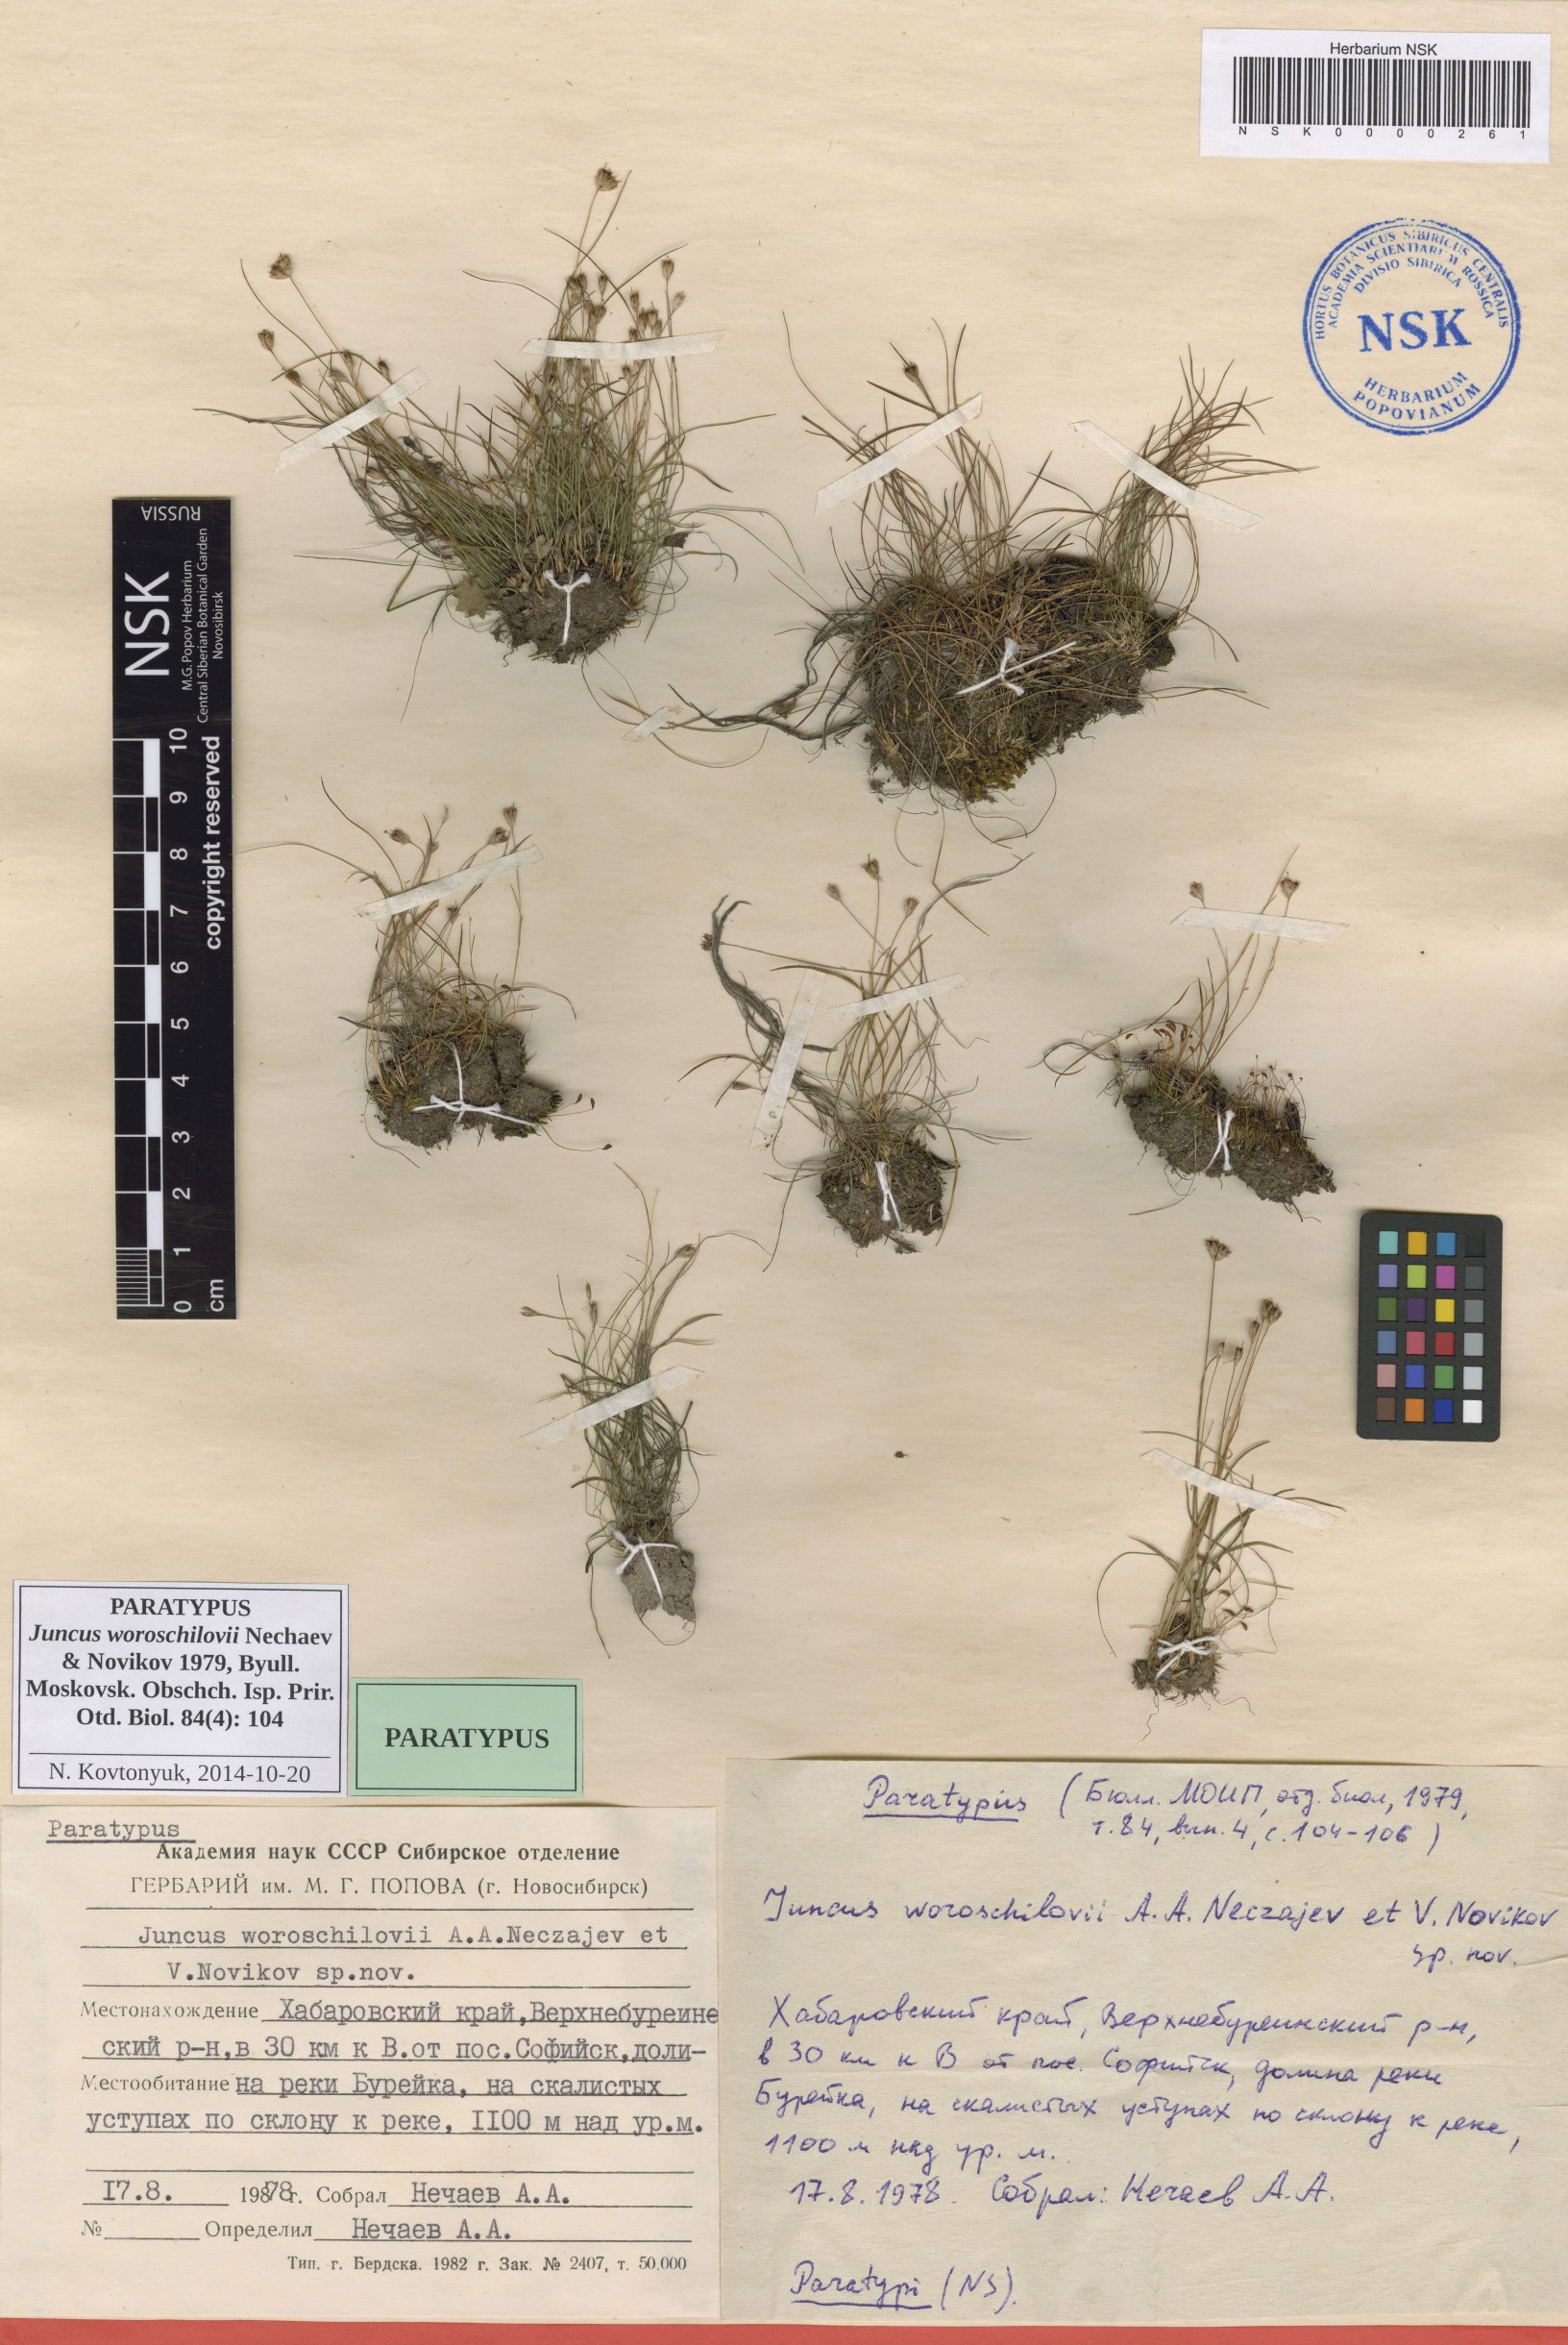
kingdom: Plantae
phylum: Tracheophyta
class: Liliopsida
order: Poales
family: Juncaceae
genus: Juncus
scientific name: Juncus potaninii
